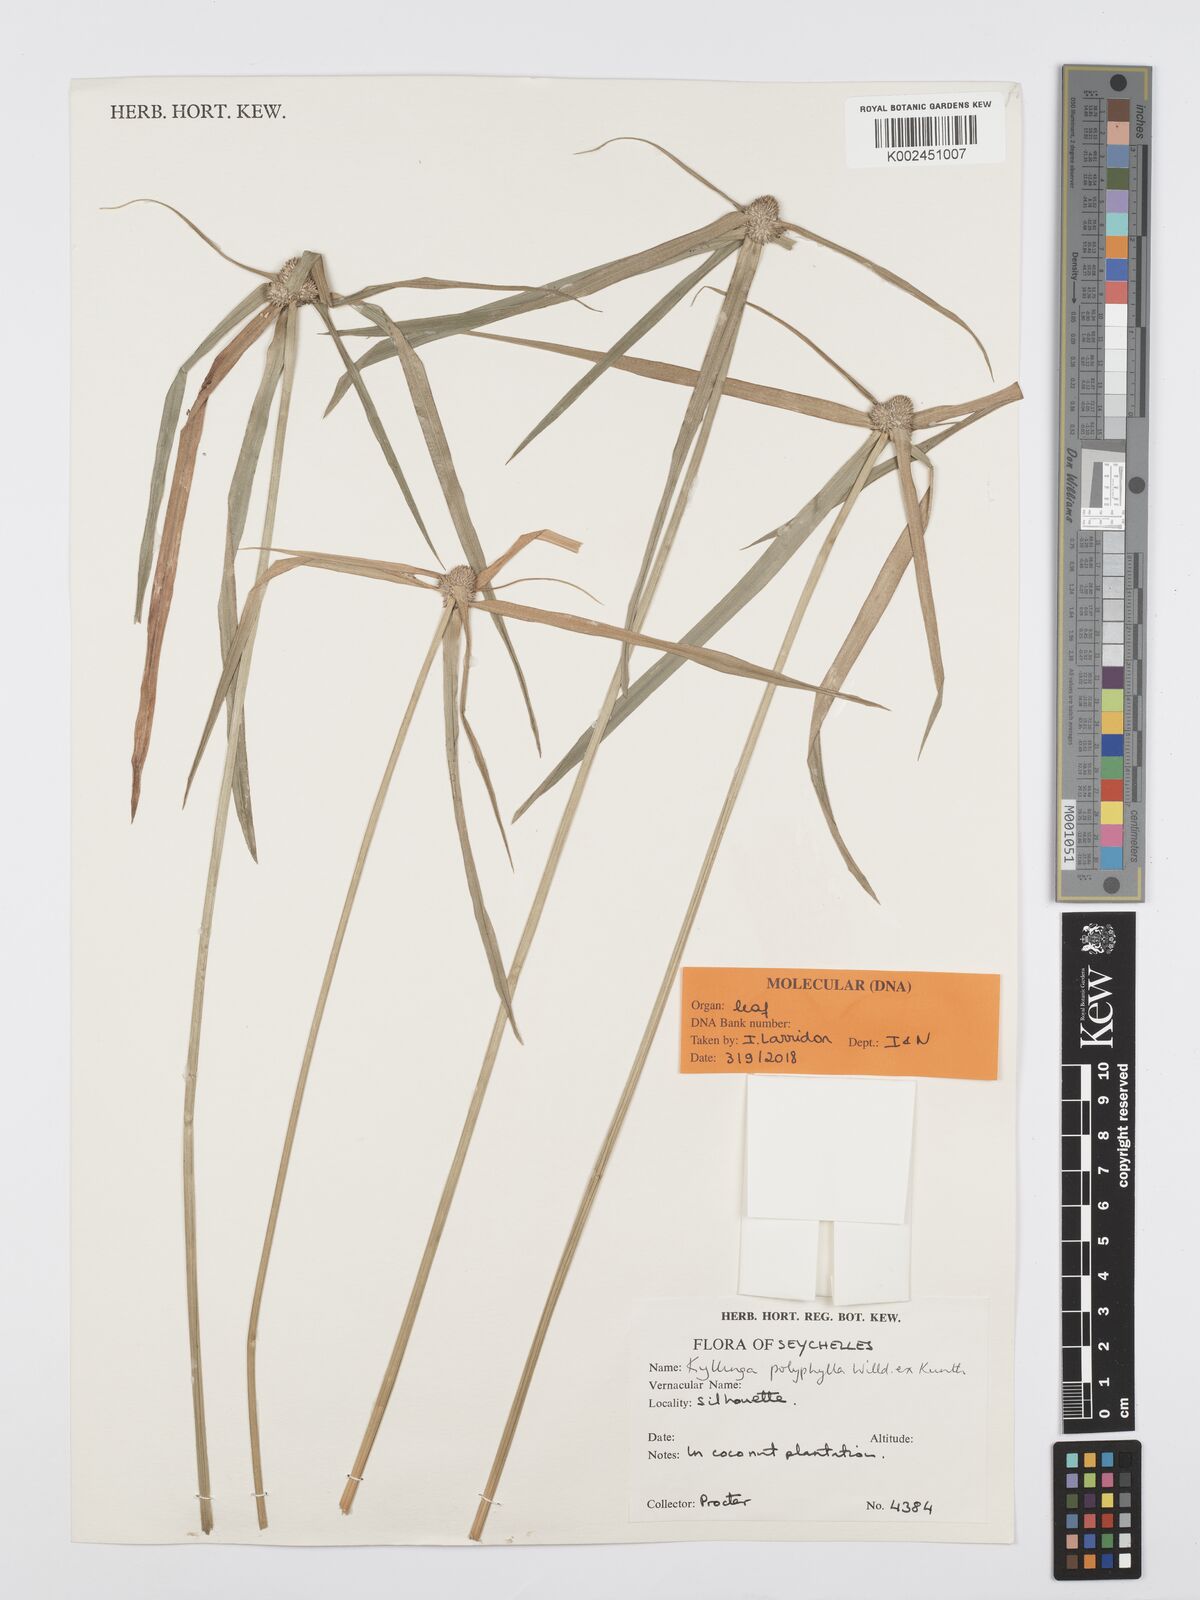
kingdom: Plantae
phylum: Tracheophyta
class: Liliopsida
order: Poales
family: Cyperaceae
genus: Cyperus
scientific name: Cyperus bulbosus
